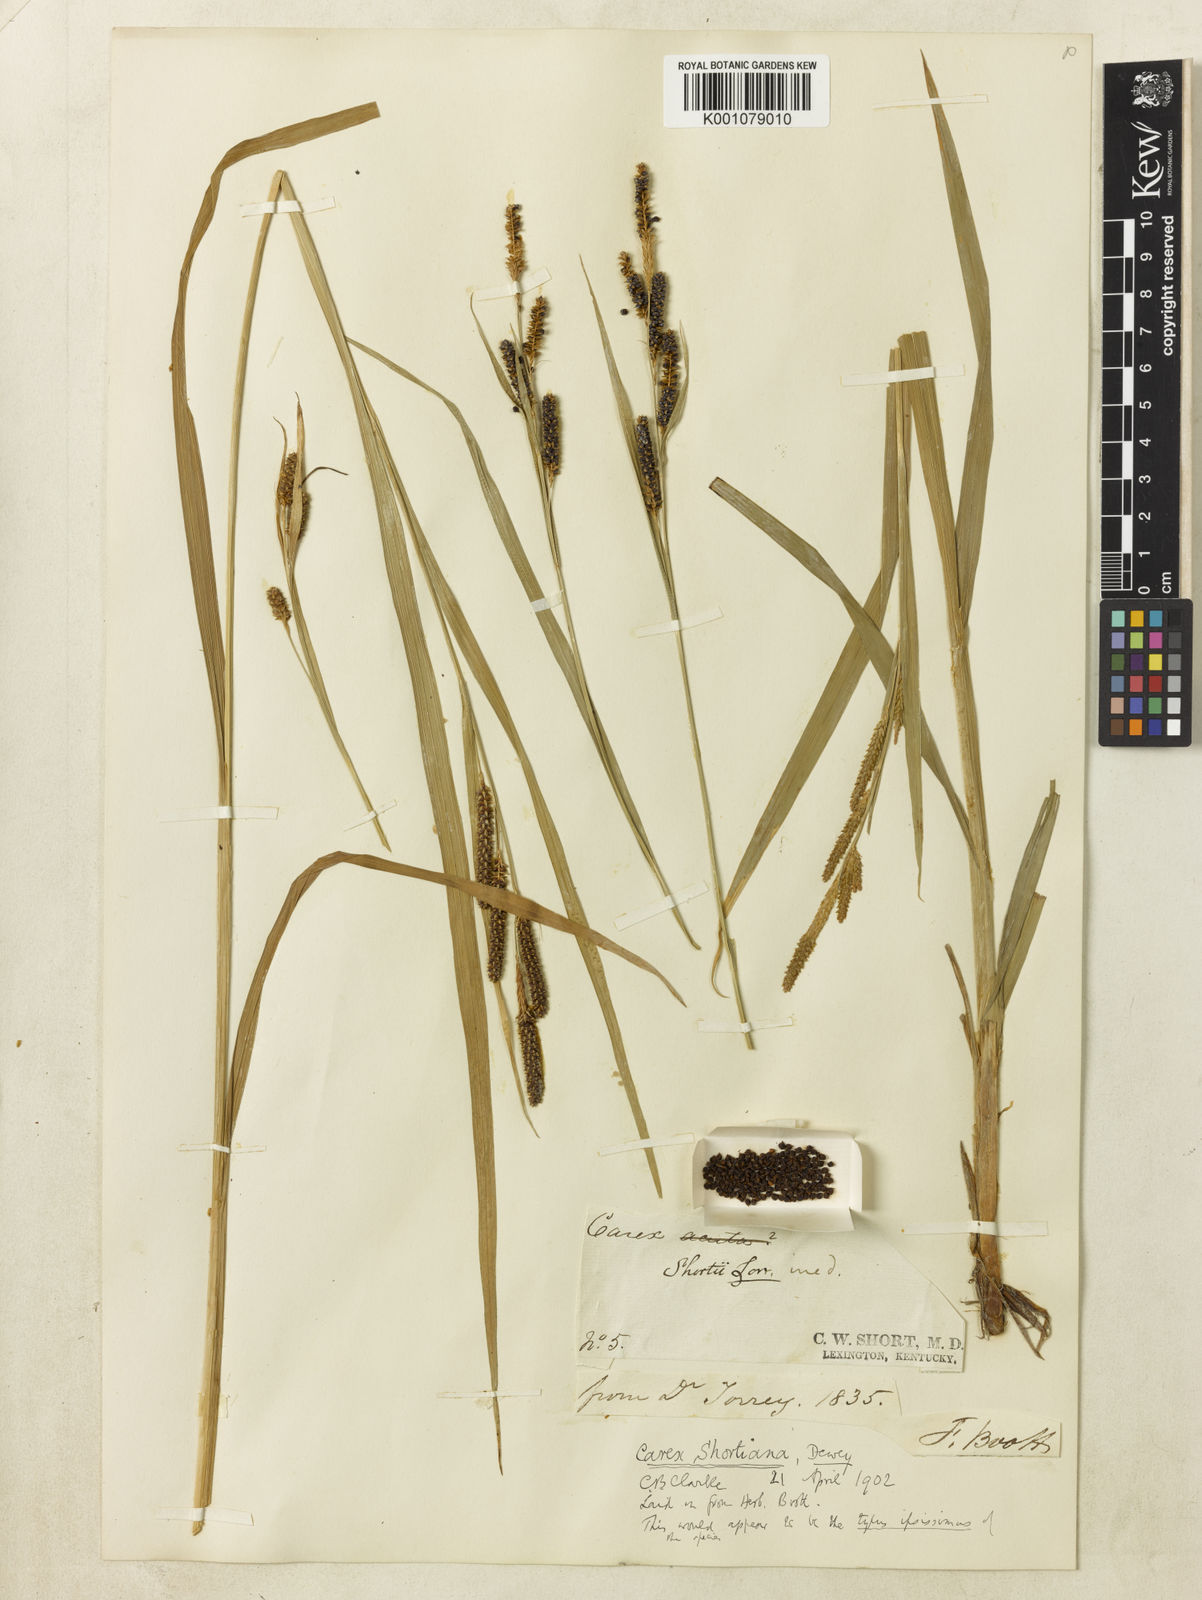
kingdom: Plantae
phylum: Tracheophyta
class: Liliopsida
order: Poales
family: Cyperaceae
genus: Carex
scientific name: Carex shortiana
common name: Short's sedge
